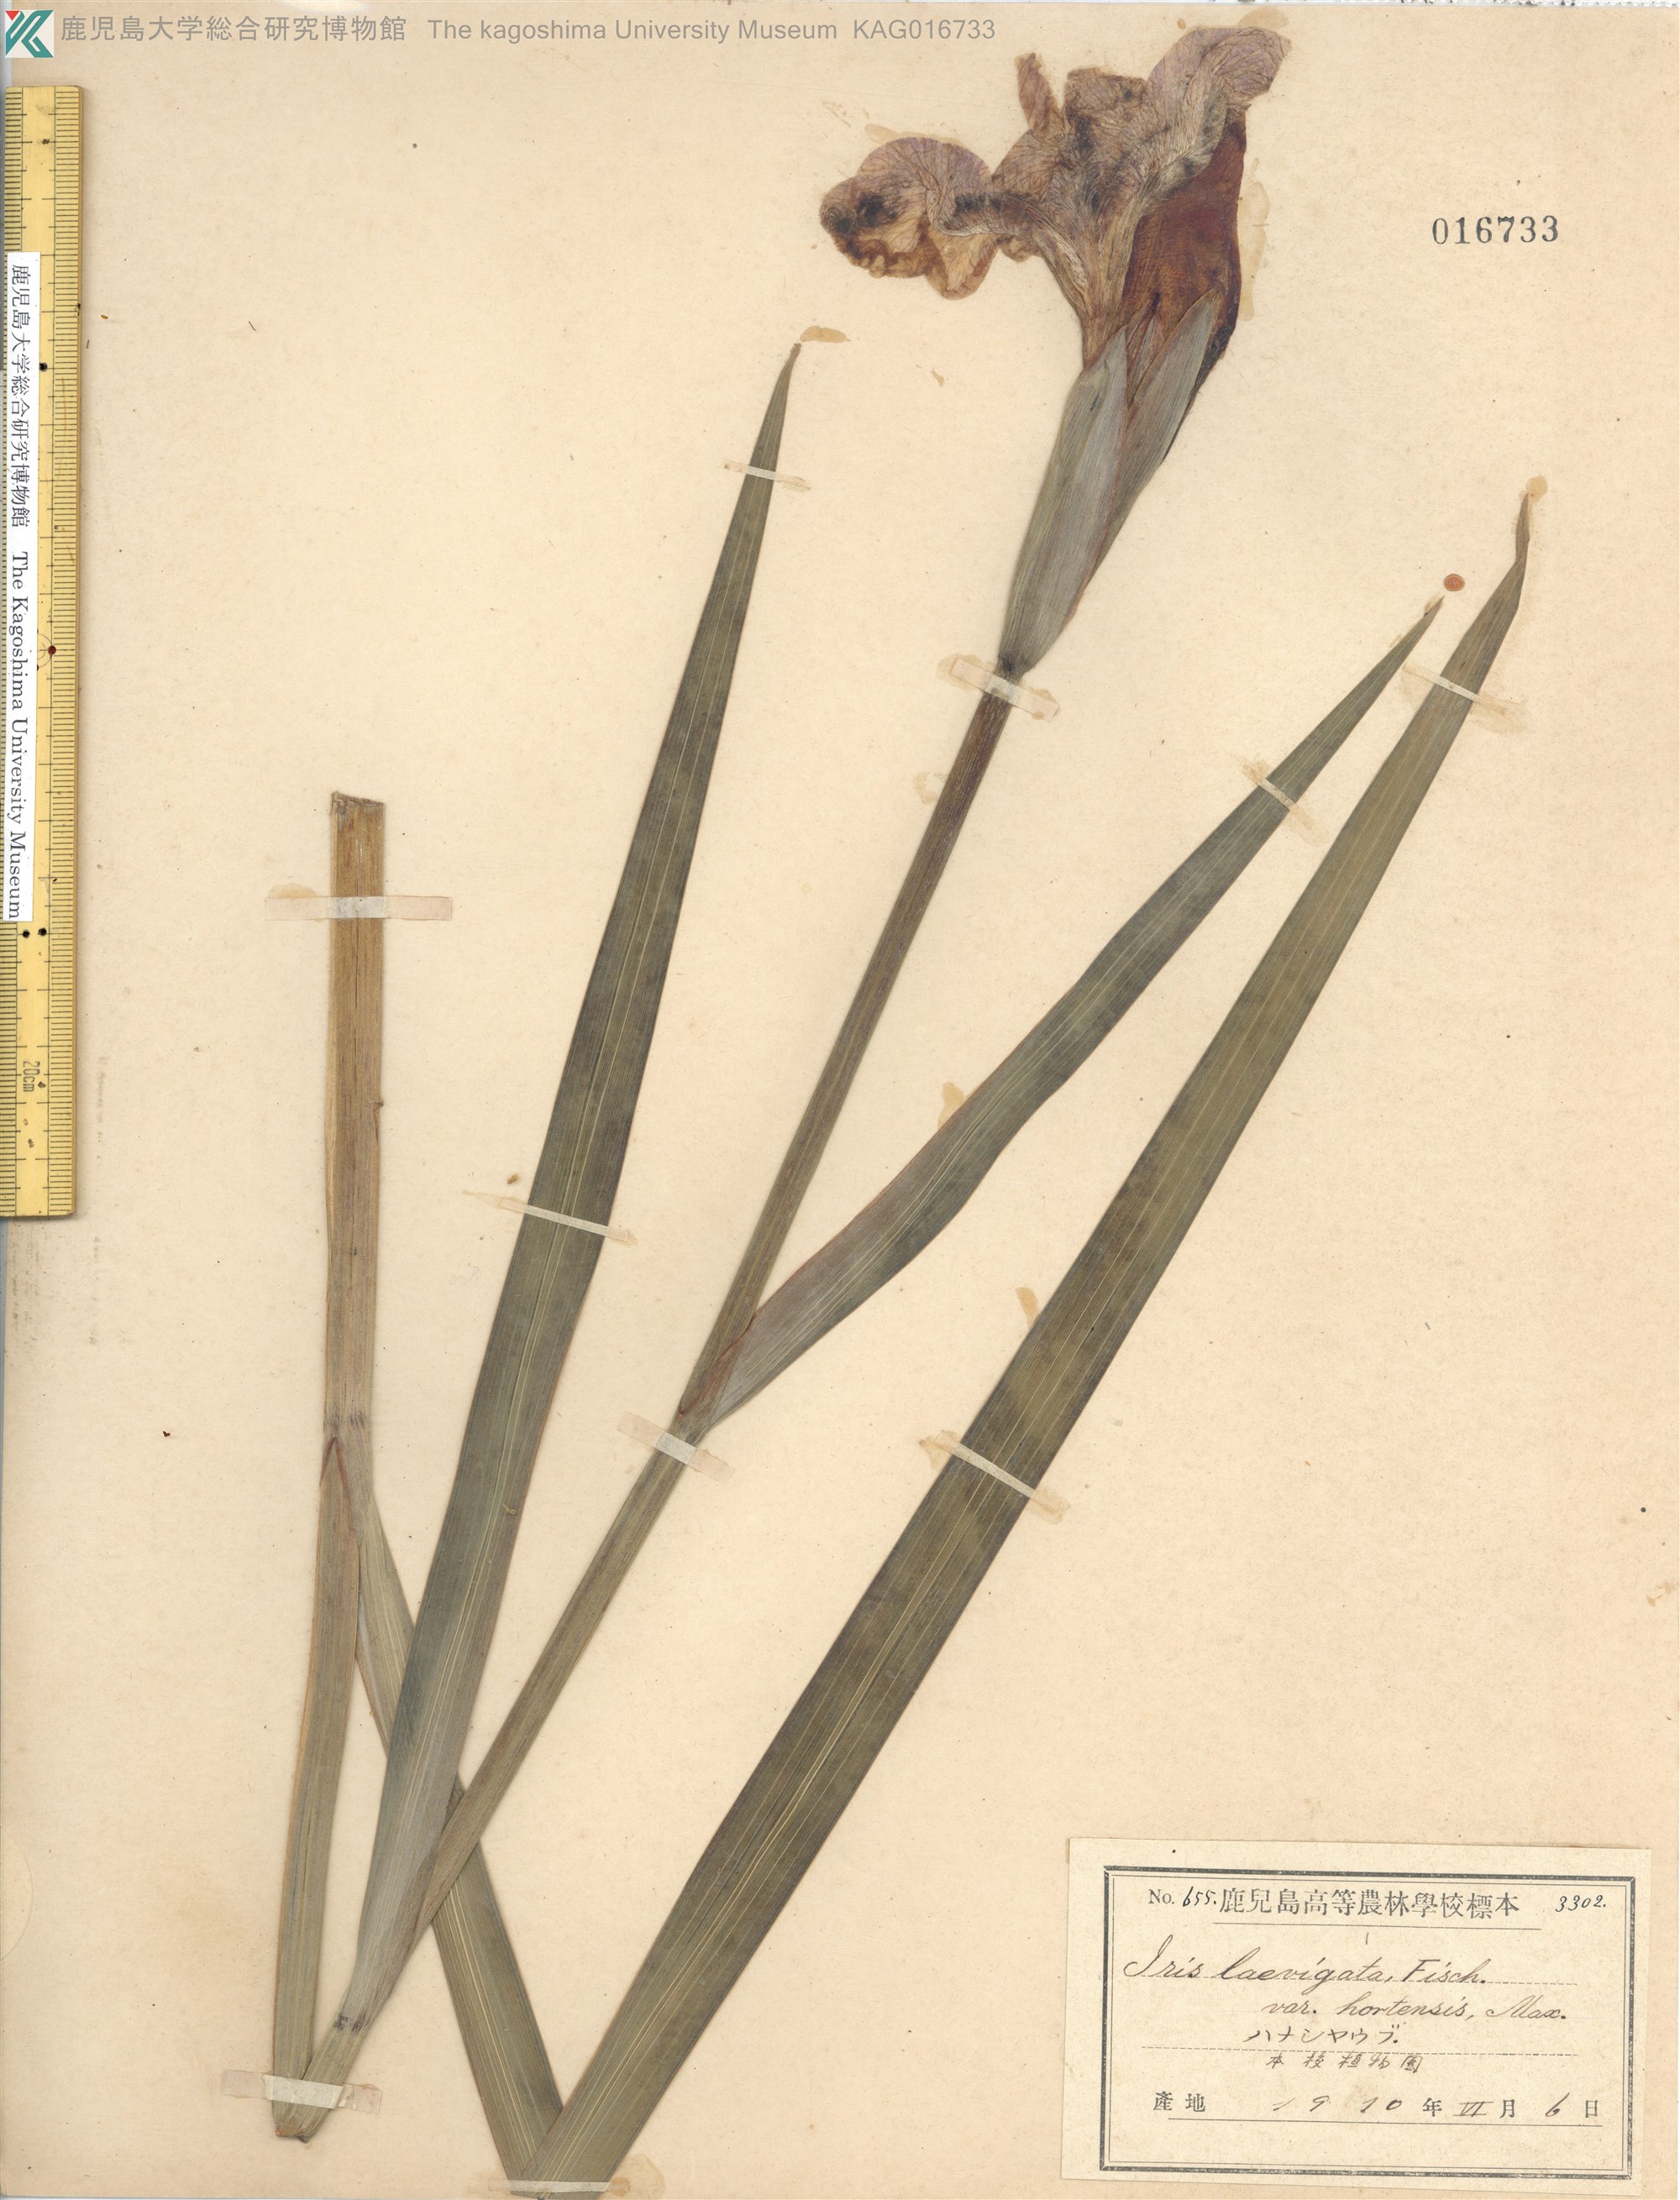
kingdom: Plantae
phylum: Tracheophyta
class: Liliopsida
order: Asparagales
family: Iridaceae
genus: Iris
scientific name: Iris laevigata
